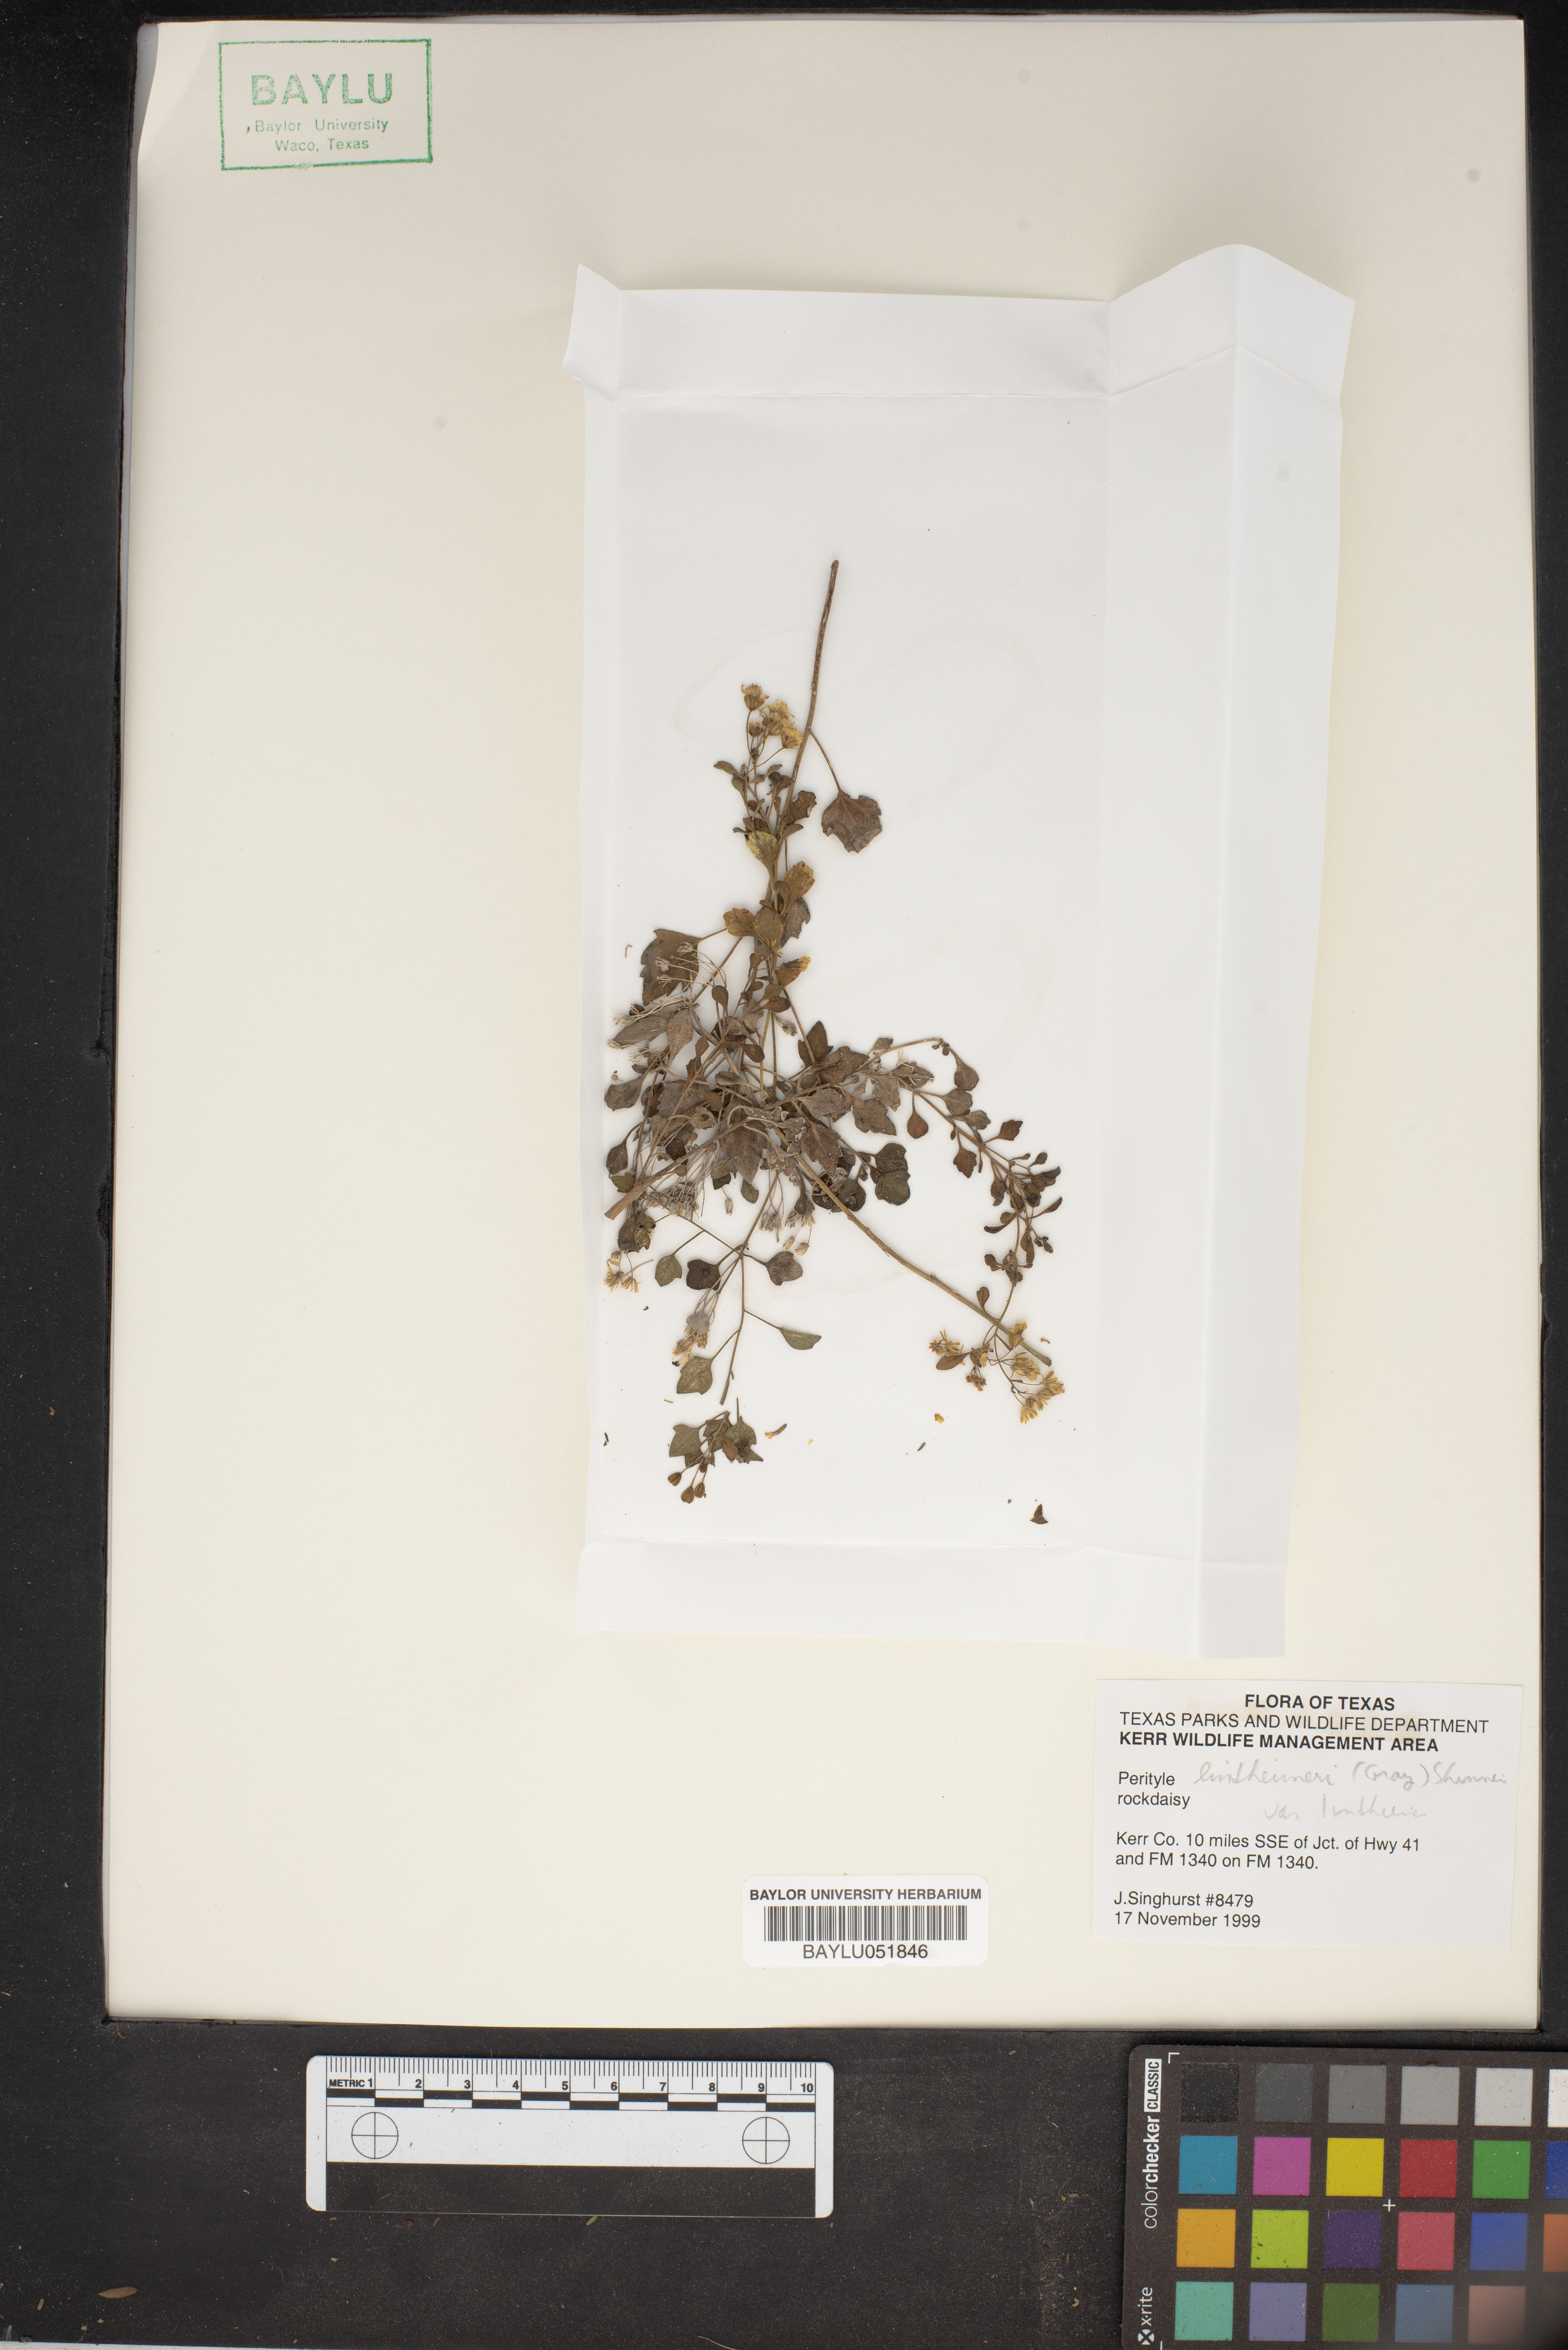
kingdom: Plantae
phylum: Tracheophyta
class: Magnoliopsida
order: Asterales
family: Asteraceae
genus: Laphamia
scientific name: Laphamia lindheimeri
